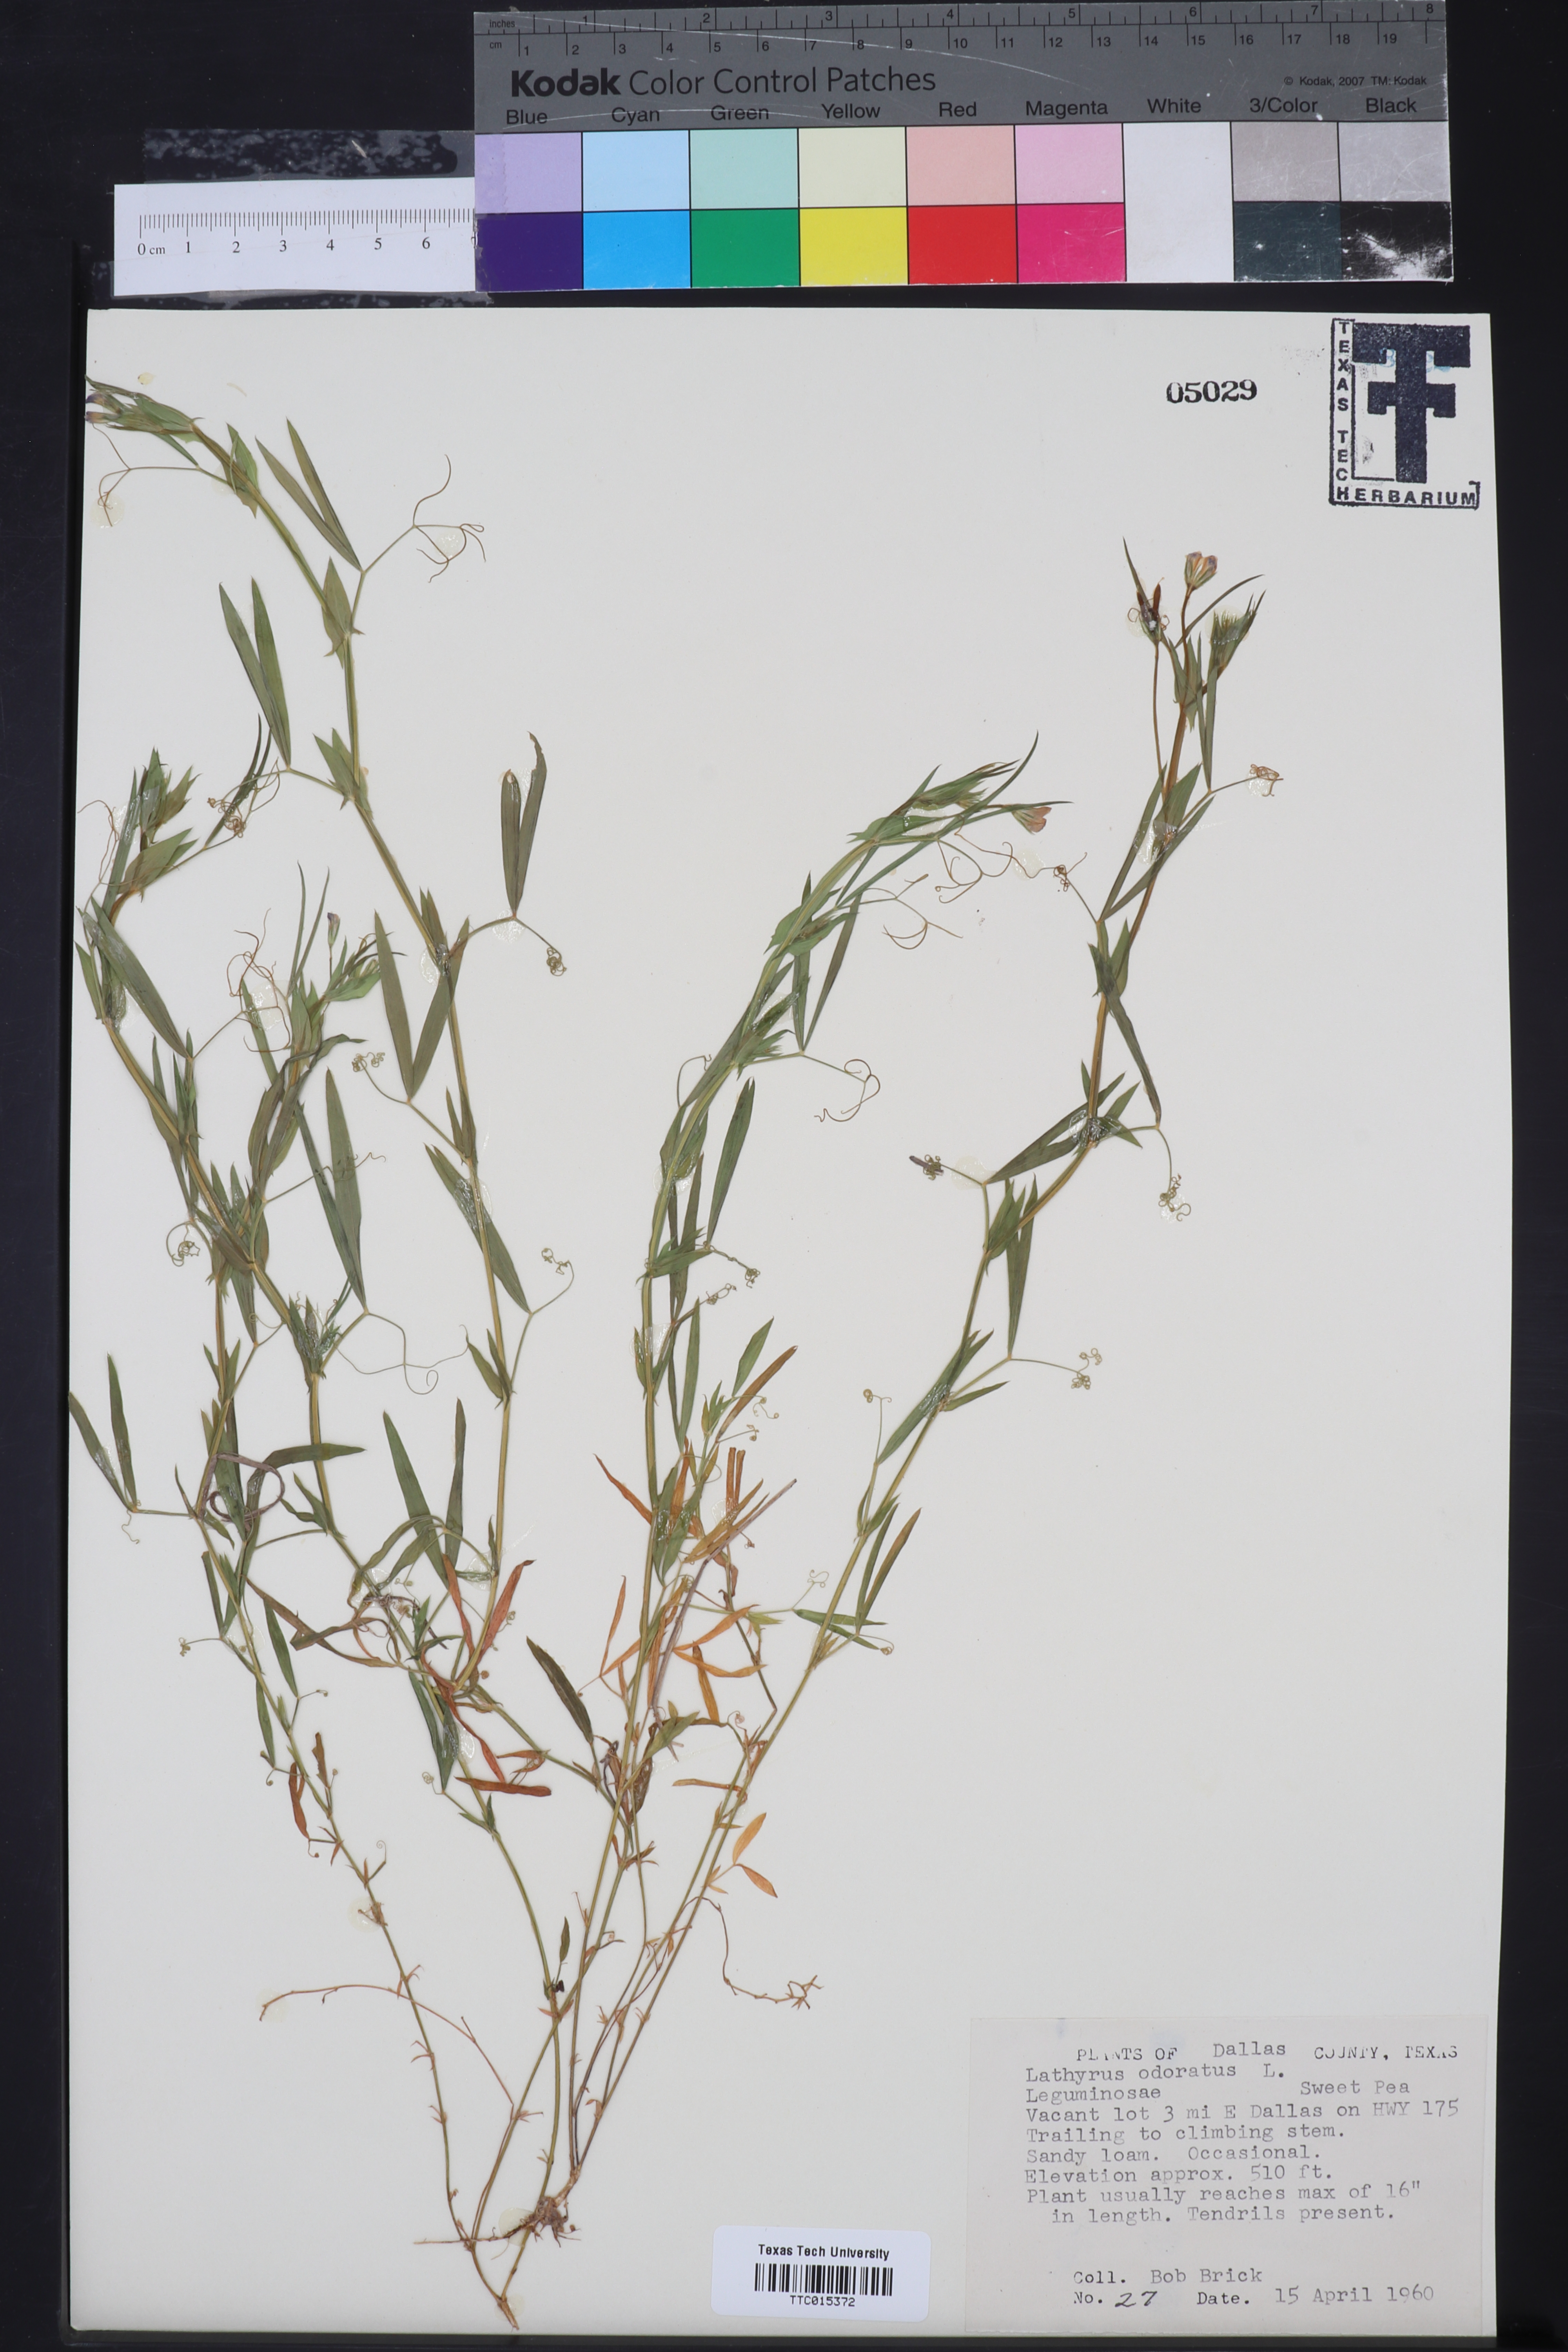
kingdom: Plantae
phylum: Tracheophyta
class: Magnoliopsida
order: Fabales
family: Fabaceae
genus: Lathyrus
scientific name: Lathyrus odoratus
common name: Sweet pea
